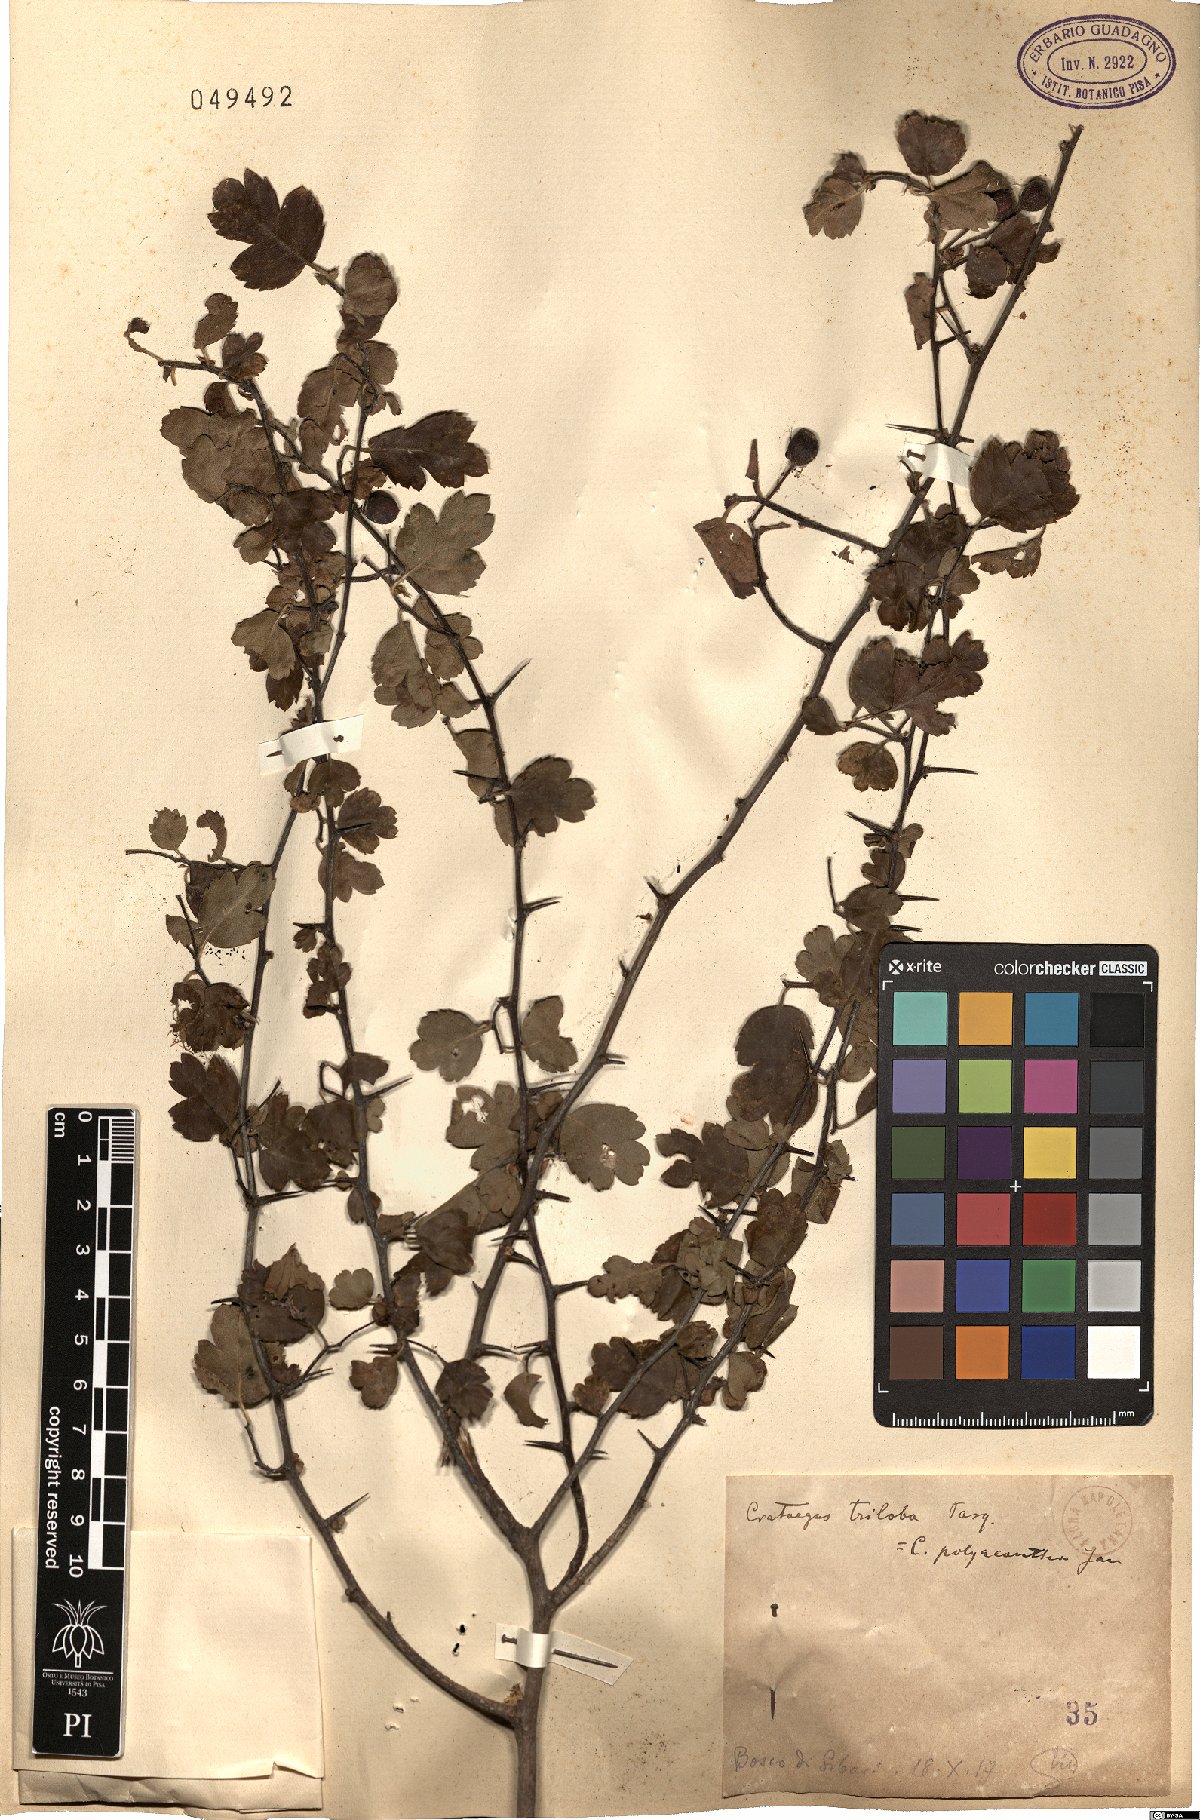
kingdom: Plantae
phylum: Tracheophyta
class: Magnoliopsida
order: Rosales
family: Rosaceae
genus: Crataegus
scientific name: Crataegus monogyna
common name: Hawthorn
